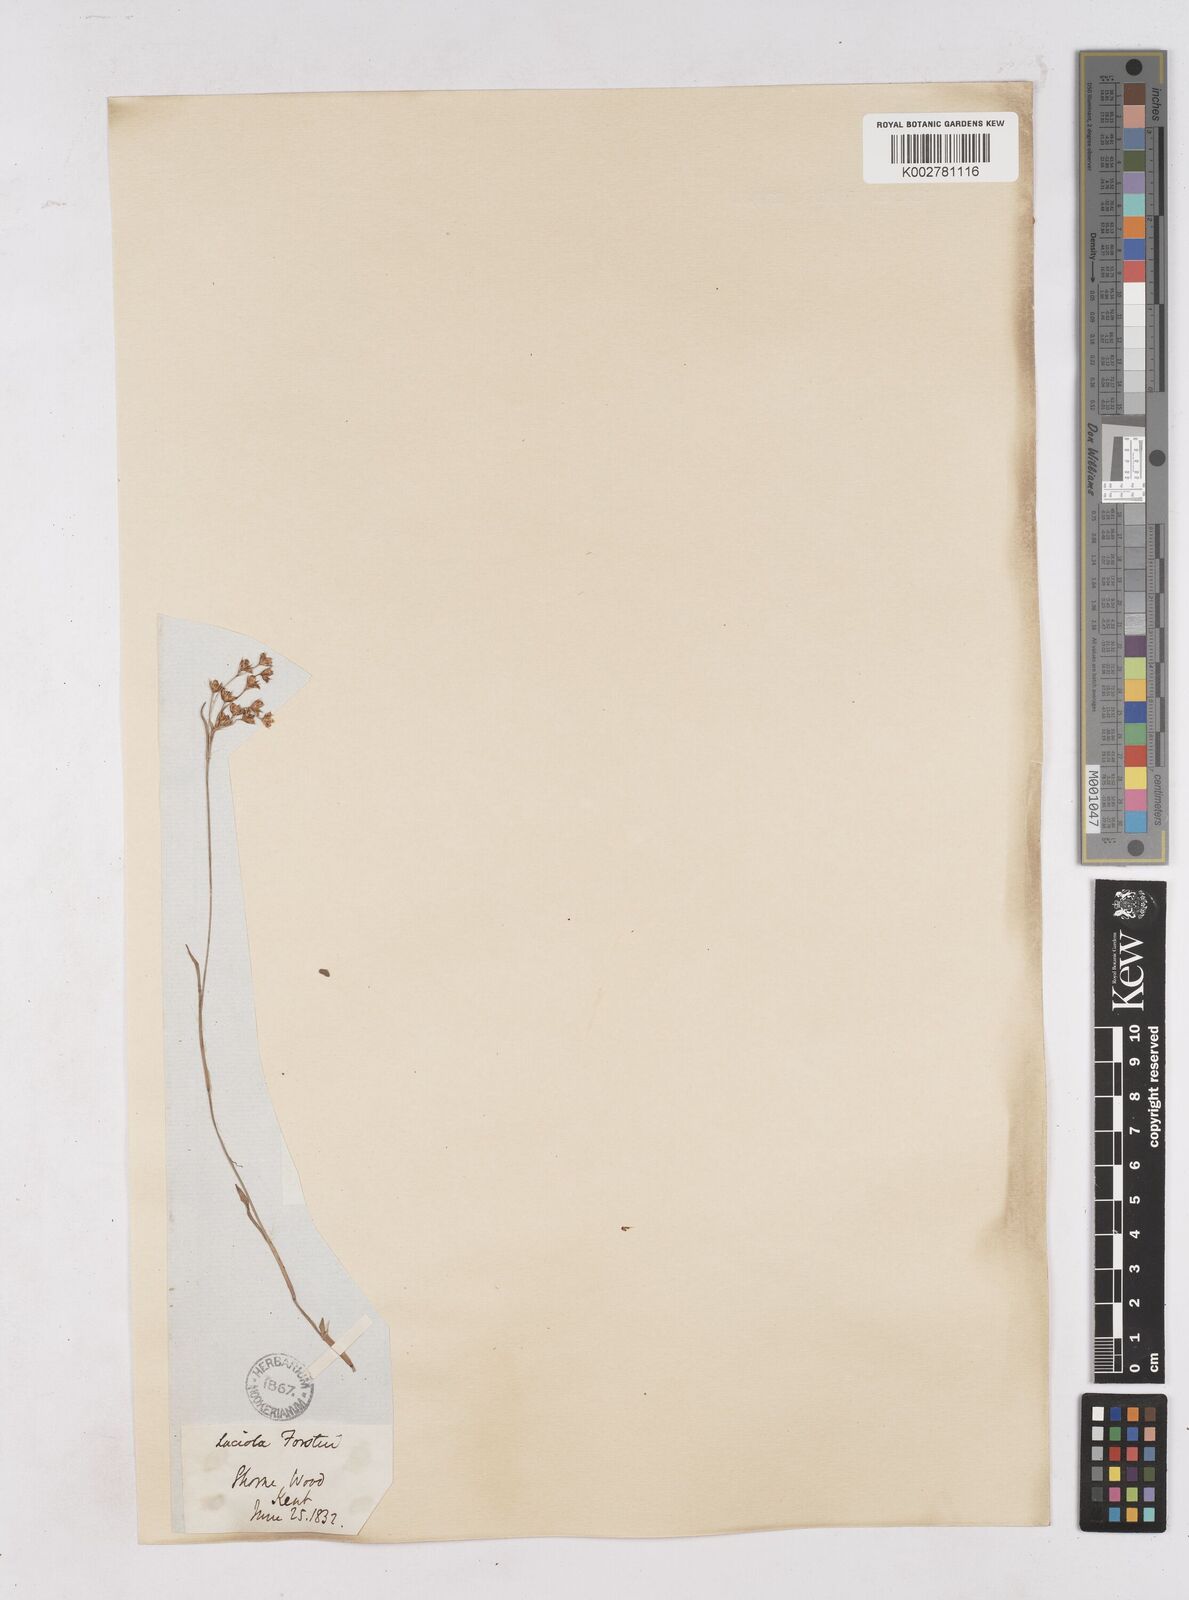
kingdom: Plantae
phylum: Tracheophyta
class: Liliopsida
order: Poales
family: Juncaceae
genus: Luzula
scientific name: Luzula forsteri
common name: Southern wood-rush
